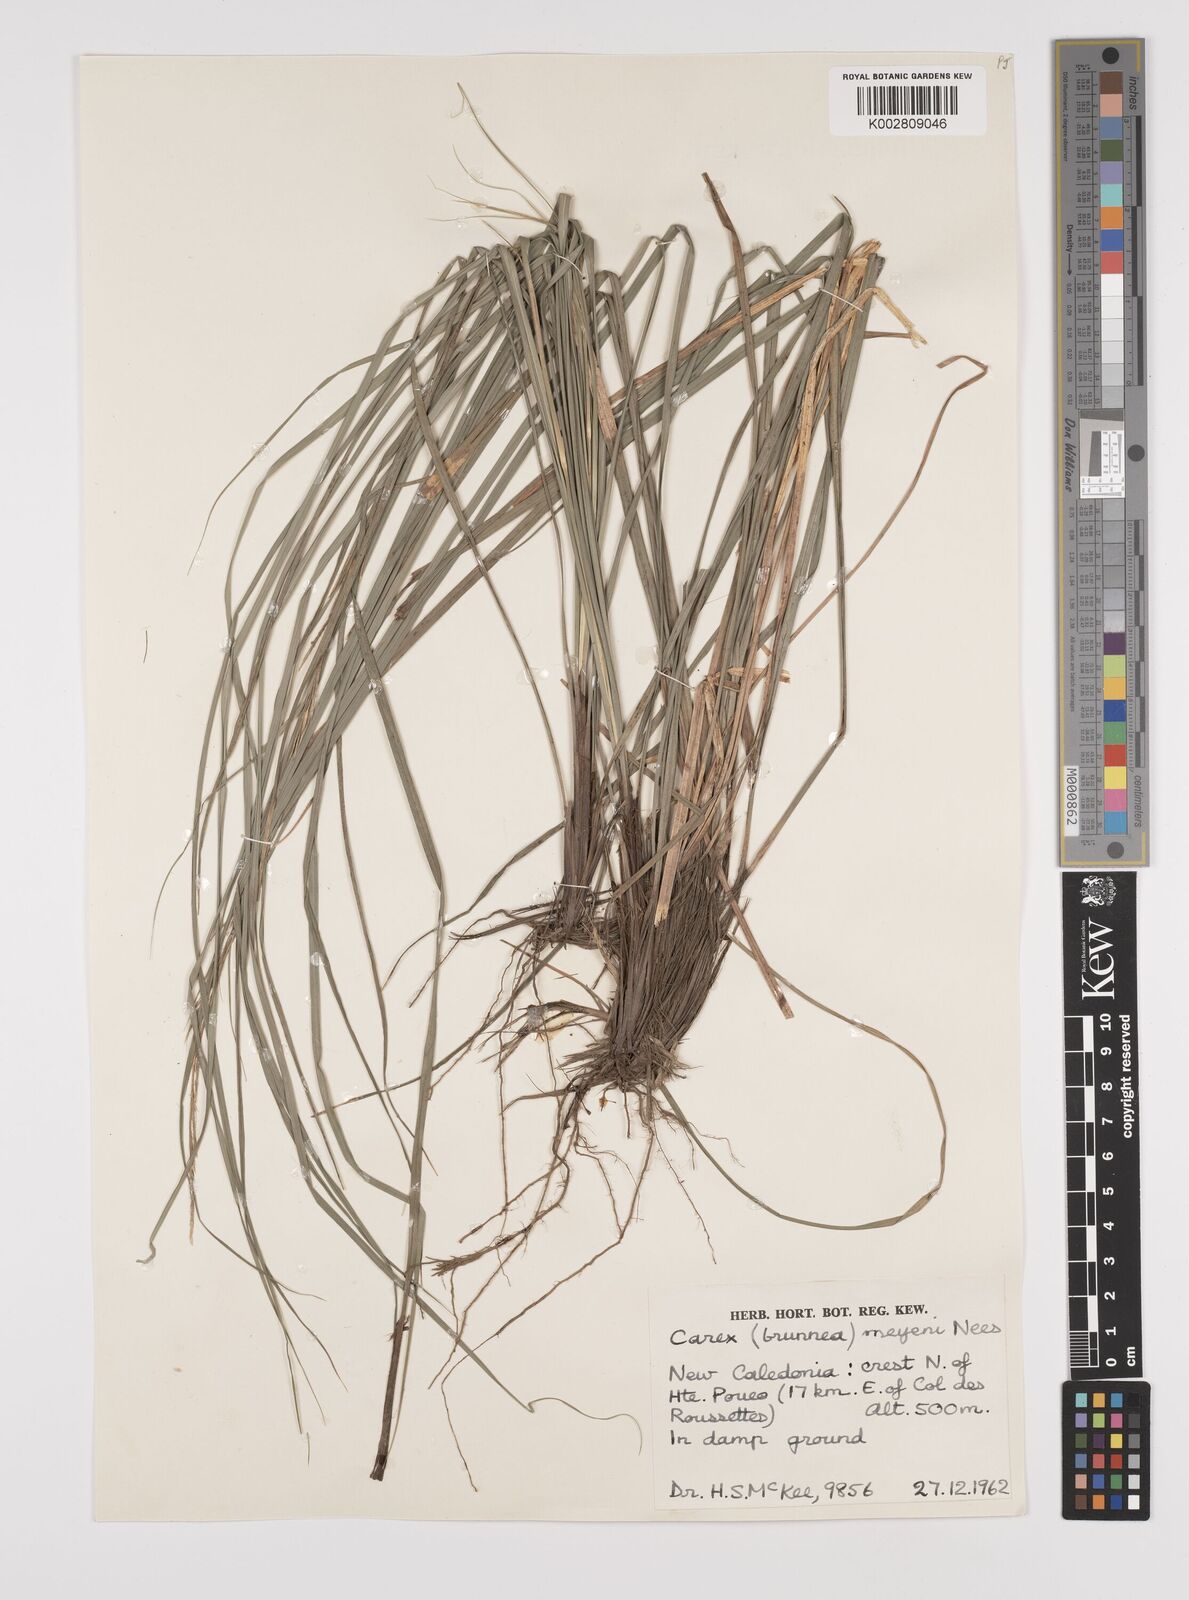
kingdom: Plantae
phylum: Tracheophyta
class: Liliopsida
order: Poales
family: Cyperaceae
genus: Carex
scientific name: Carex brunnea
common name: Greater brown sedge
